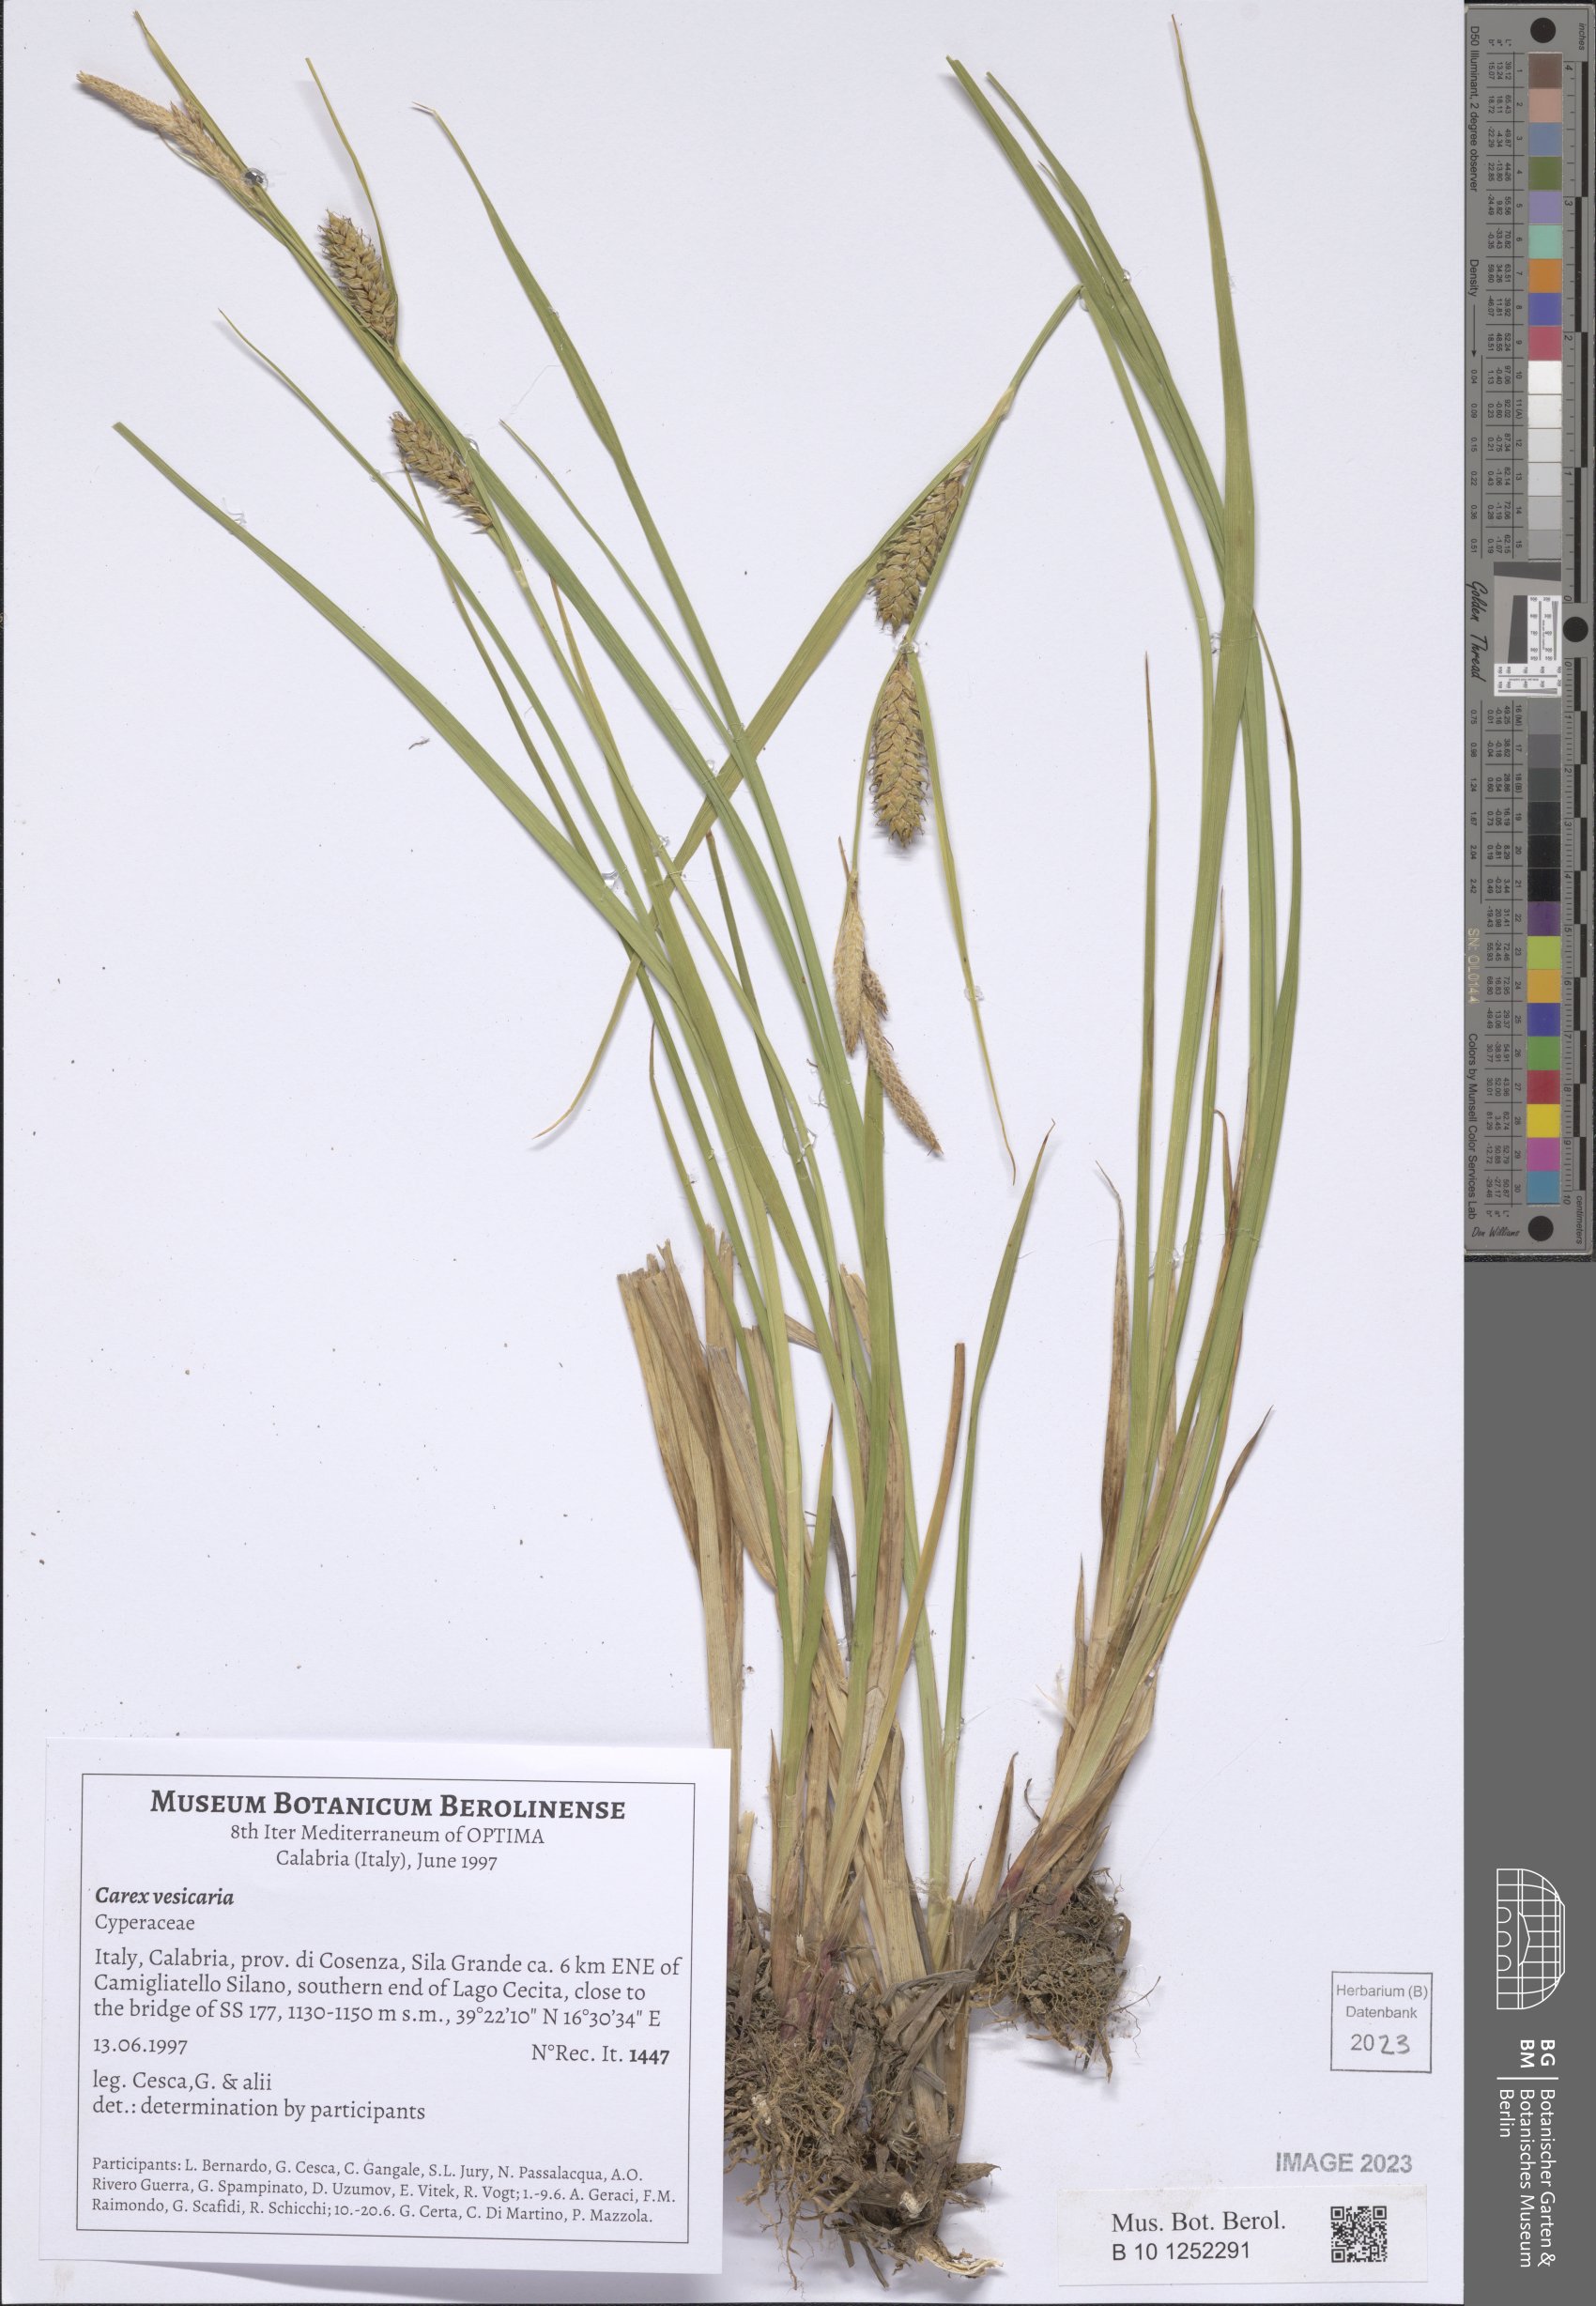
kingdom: Plantae
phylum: Tracheophyta
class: Liliopsida
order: Poales
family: Cyperaceae
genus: Carex
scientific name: Carex vesicaria
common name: Bladder-sedge
